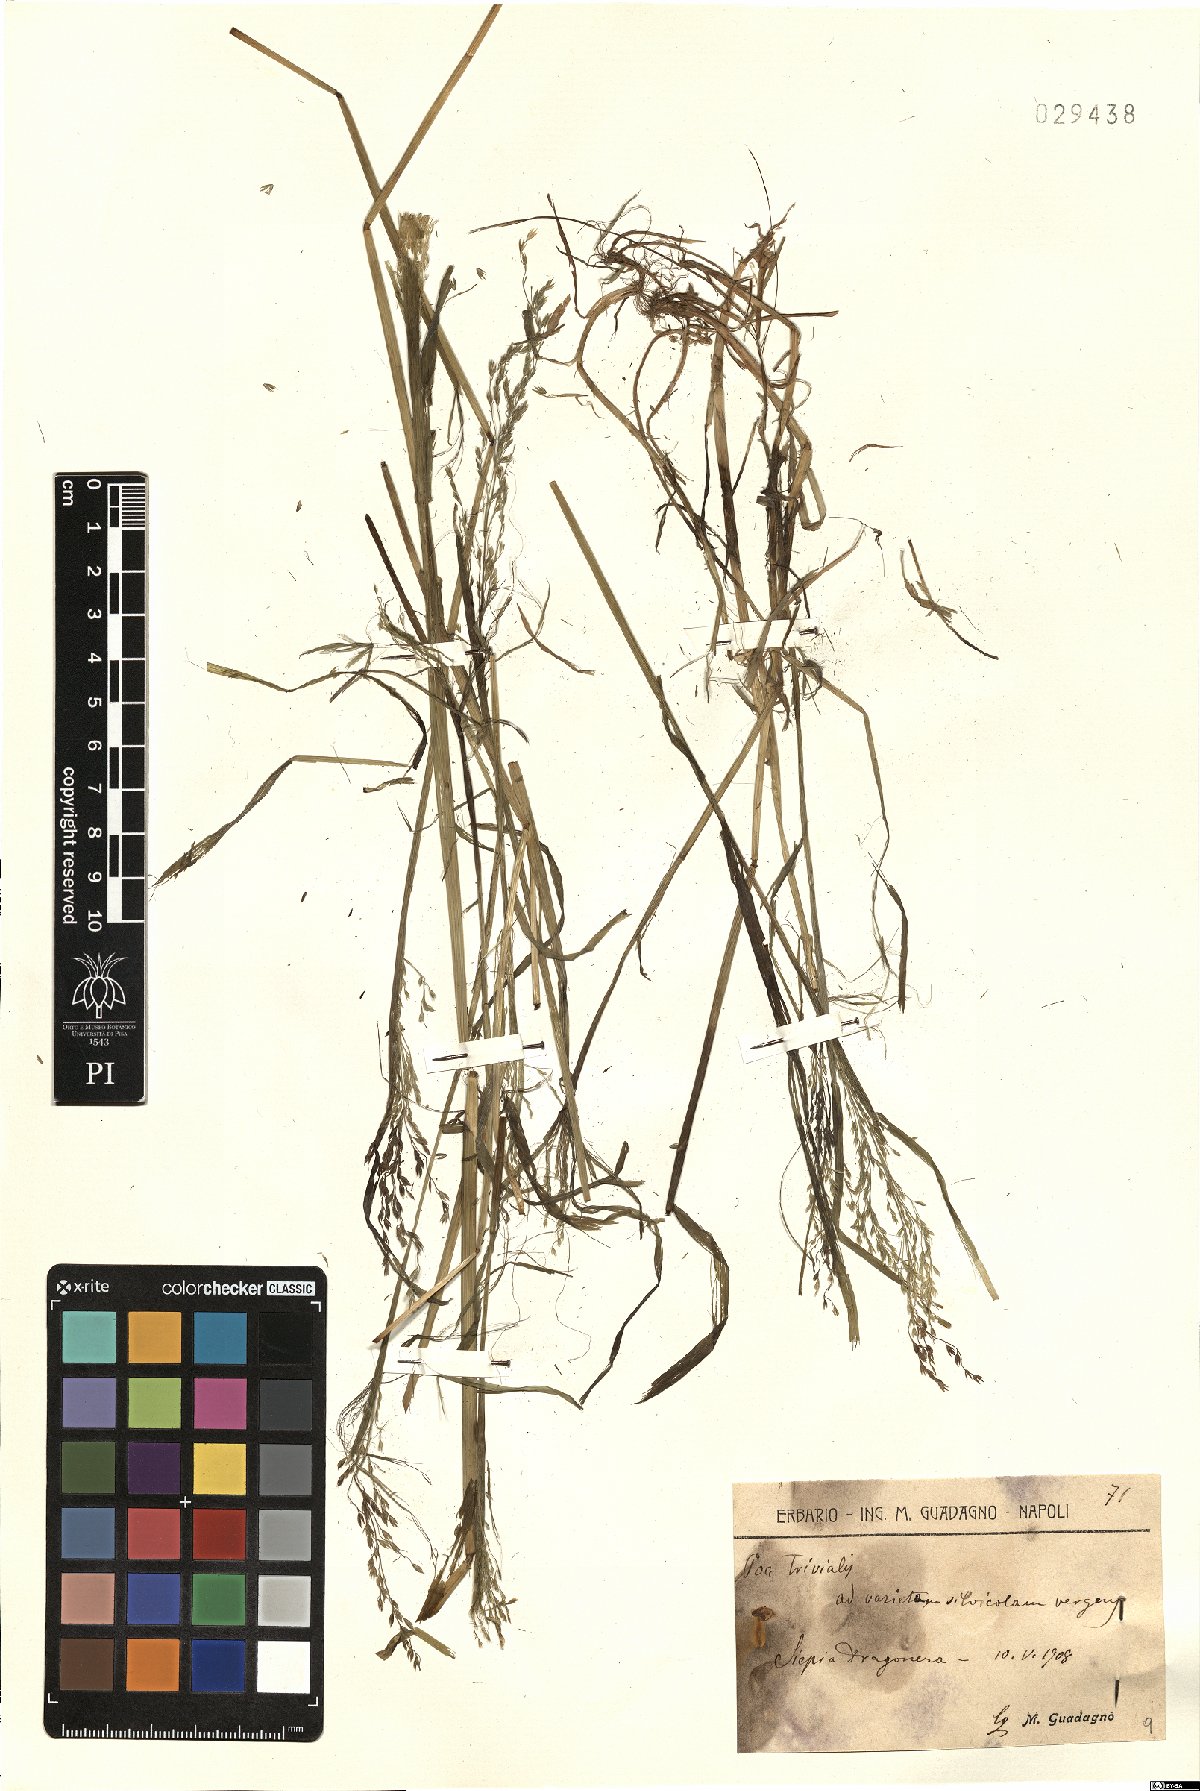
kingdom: Plantae
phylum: Tracheophyta
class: Liliopsida
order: Poales
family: Poaceae
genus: Poa
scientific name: Poa trivialis
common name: Rough bluegrass
